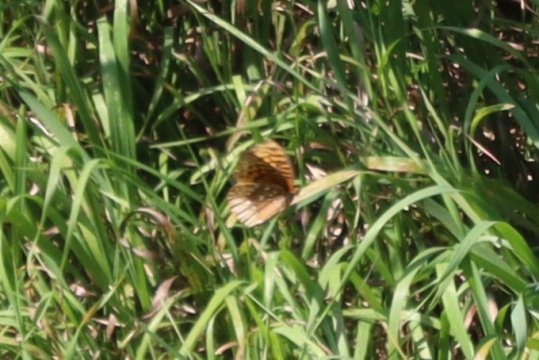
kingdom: Animalia
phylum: Arthropoda
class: Insecta
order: Lepidoptera
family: Nymphalidae
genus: Speyeria
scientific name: Speyeria cybele
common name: Great Spangled Fritillary
